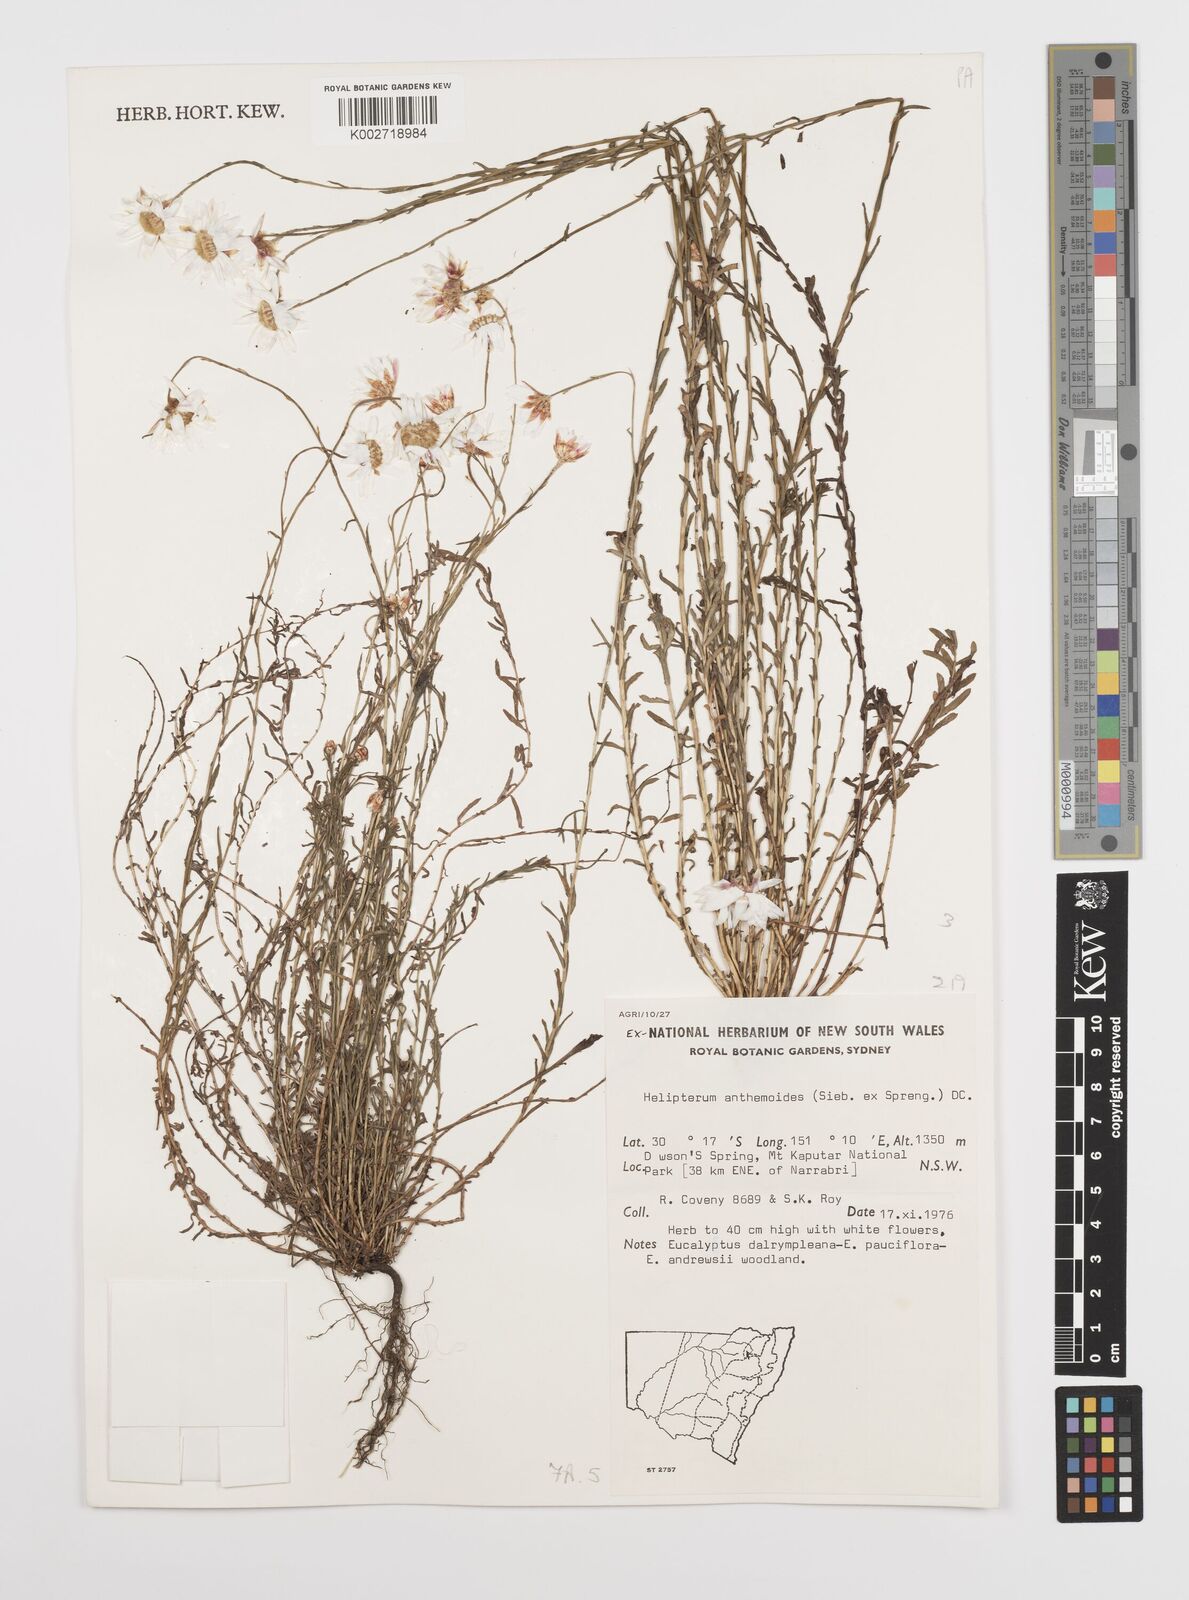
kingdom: Plantae
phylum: Tracheophyta
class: Magnoliopsida
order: Asterales
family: Asteraceae
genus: Rhodanthe
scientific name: Rhodanthe anthemoides
